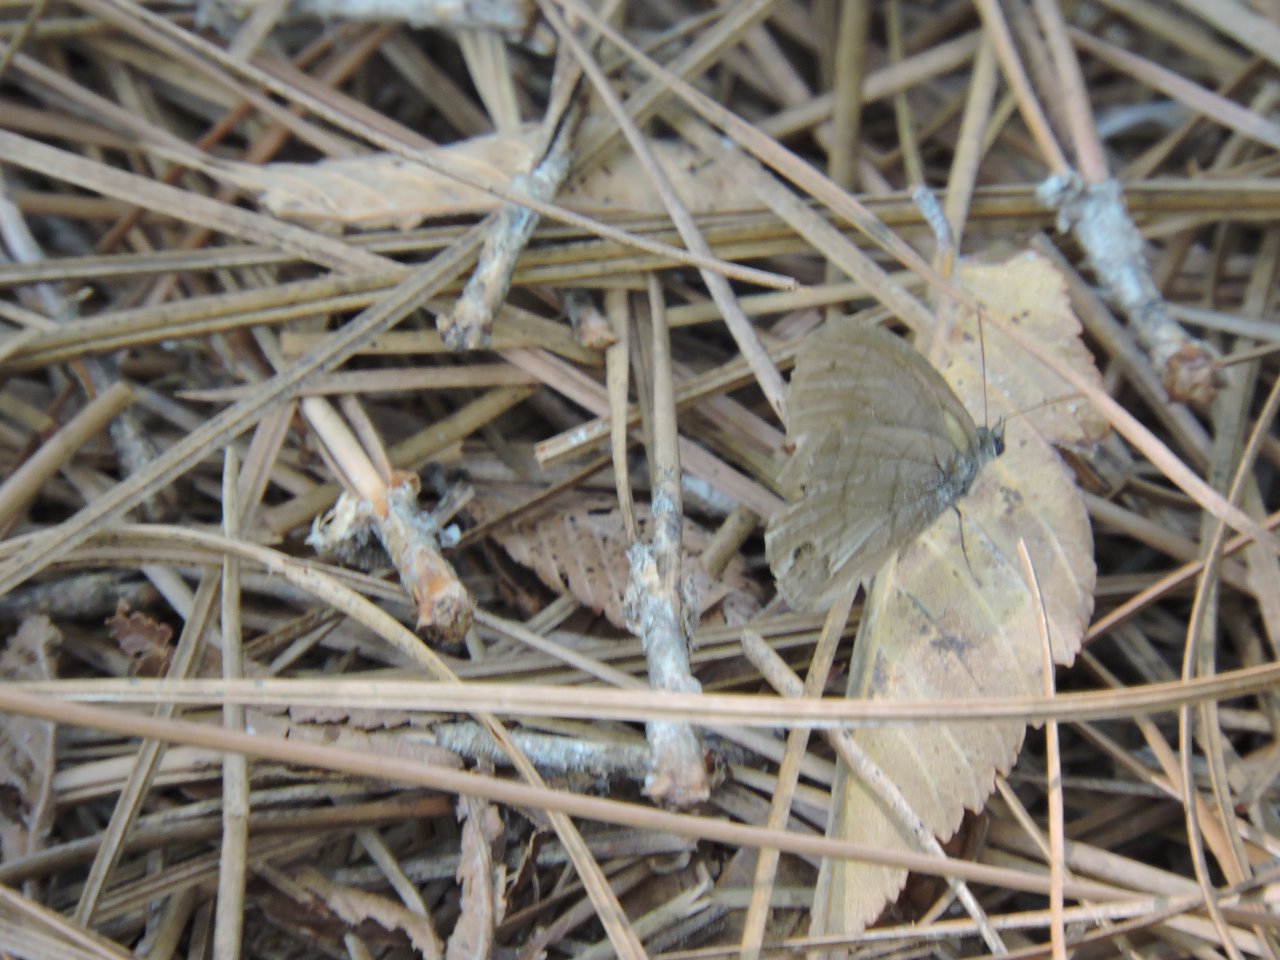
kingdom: Animalia
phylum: Arthropoda
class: Insecta
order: Lepidoptera
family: Nymphalidae
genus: Hermeuptychia
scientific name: Hermeuptychia hermes
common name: Carolina Satyr
